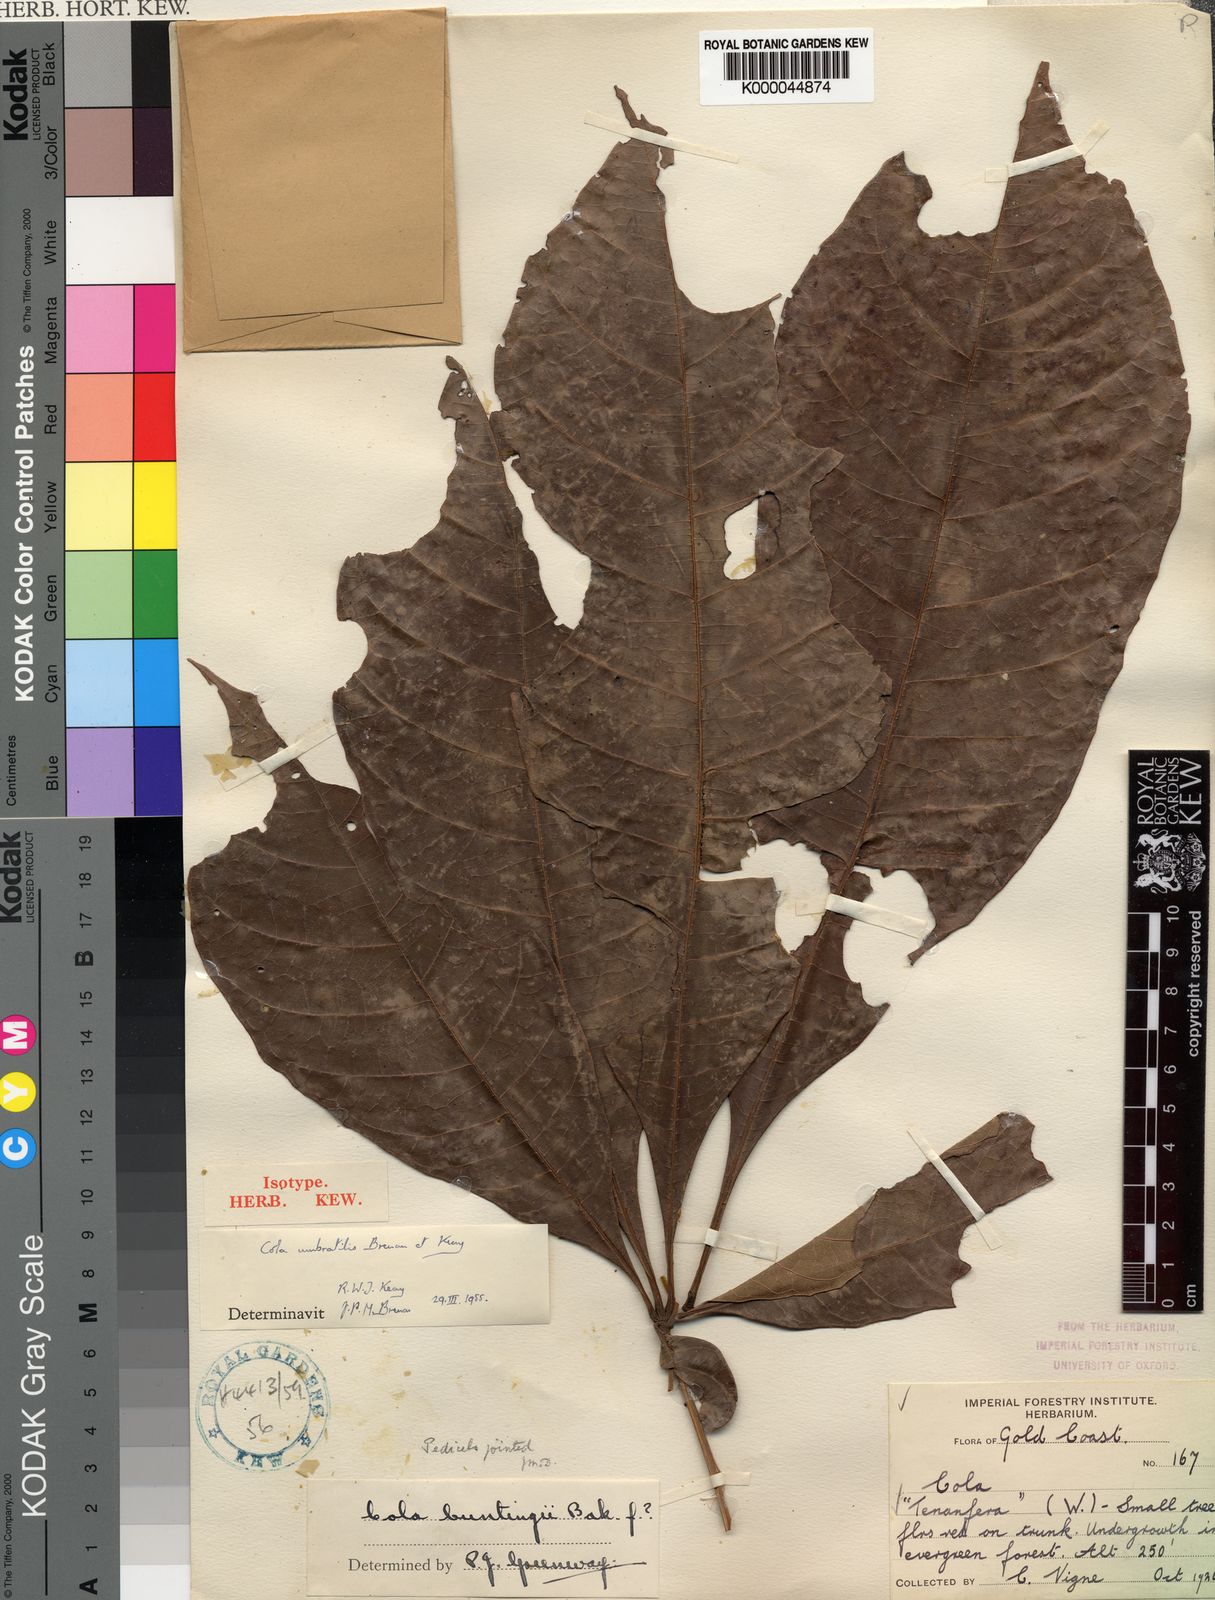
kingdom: Plantae
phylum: Tracheophyta
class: Magnoliopsida
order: Malvales
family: Malvaceae
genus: Cola
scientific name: Cola umbratilis
